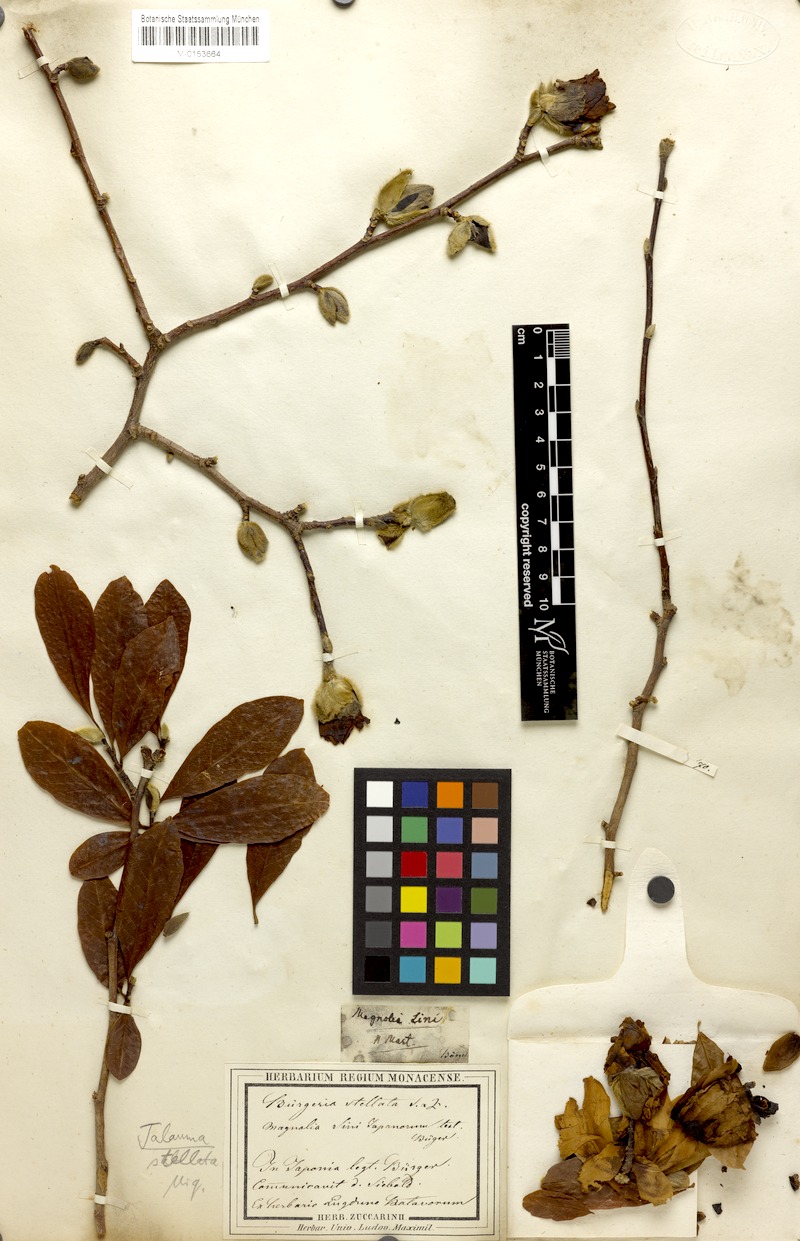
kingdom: Plantae
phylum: Tracheophyta
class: Magnoliopsida
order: Magnoliales
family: Magnoliaceae
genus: Magnolia
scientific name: Magnolia stellata
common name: Star magnolia
